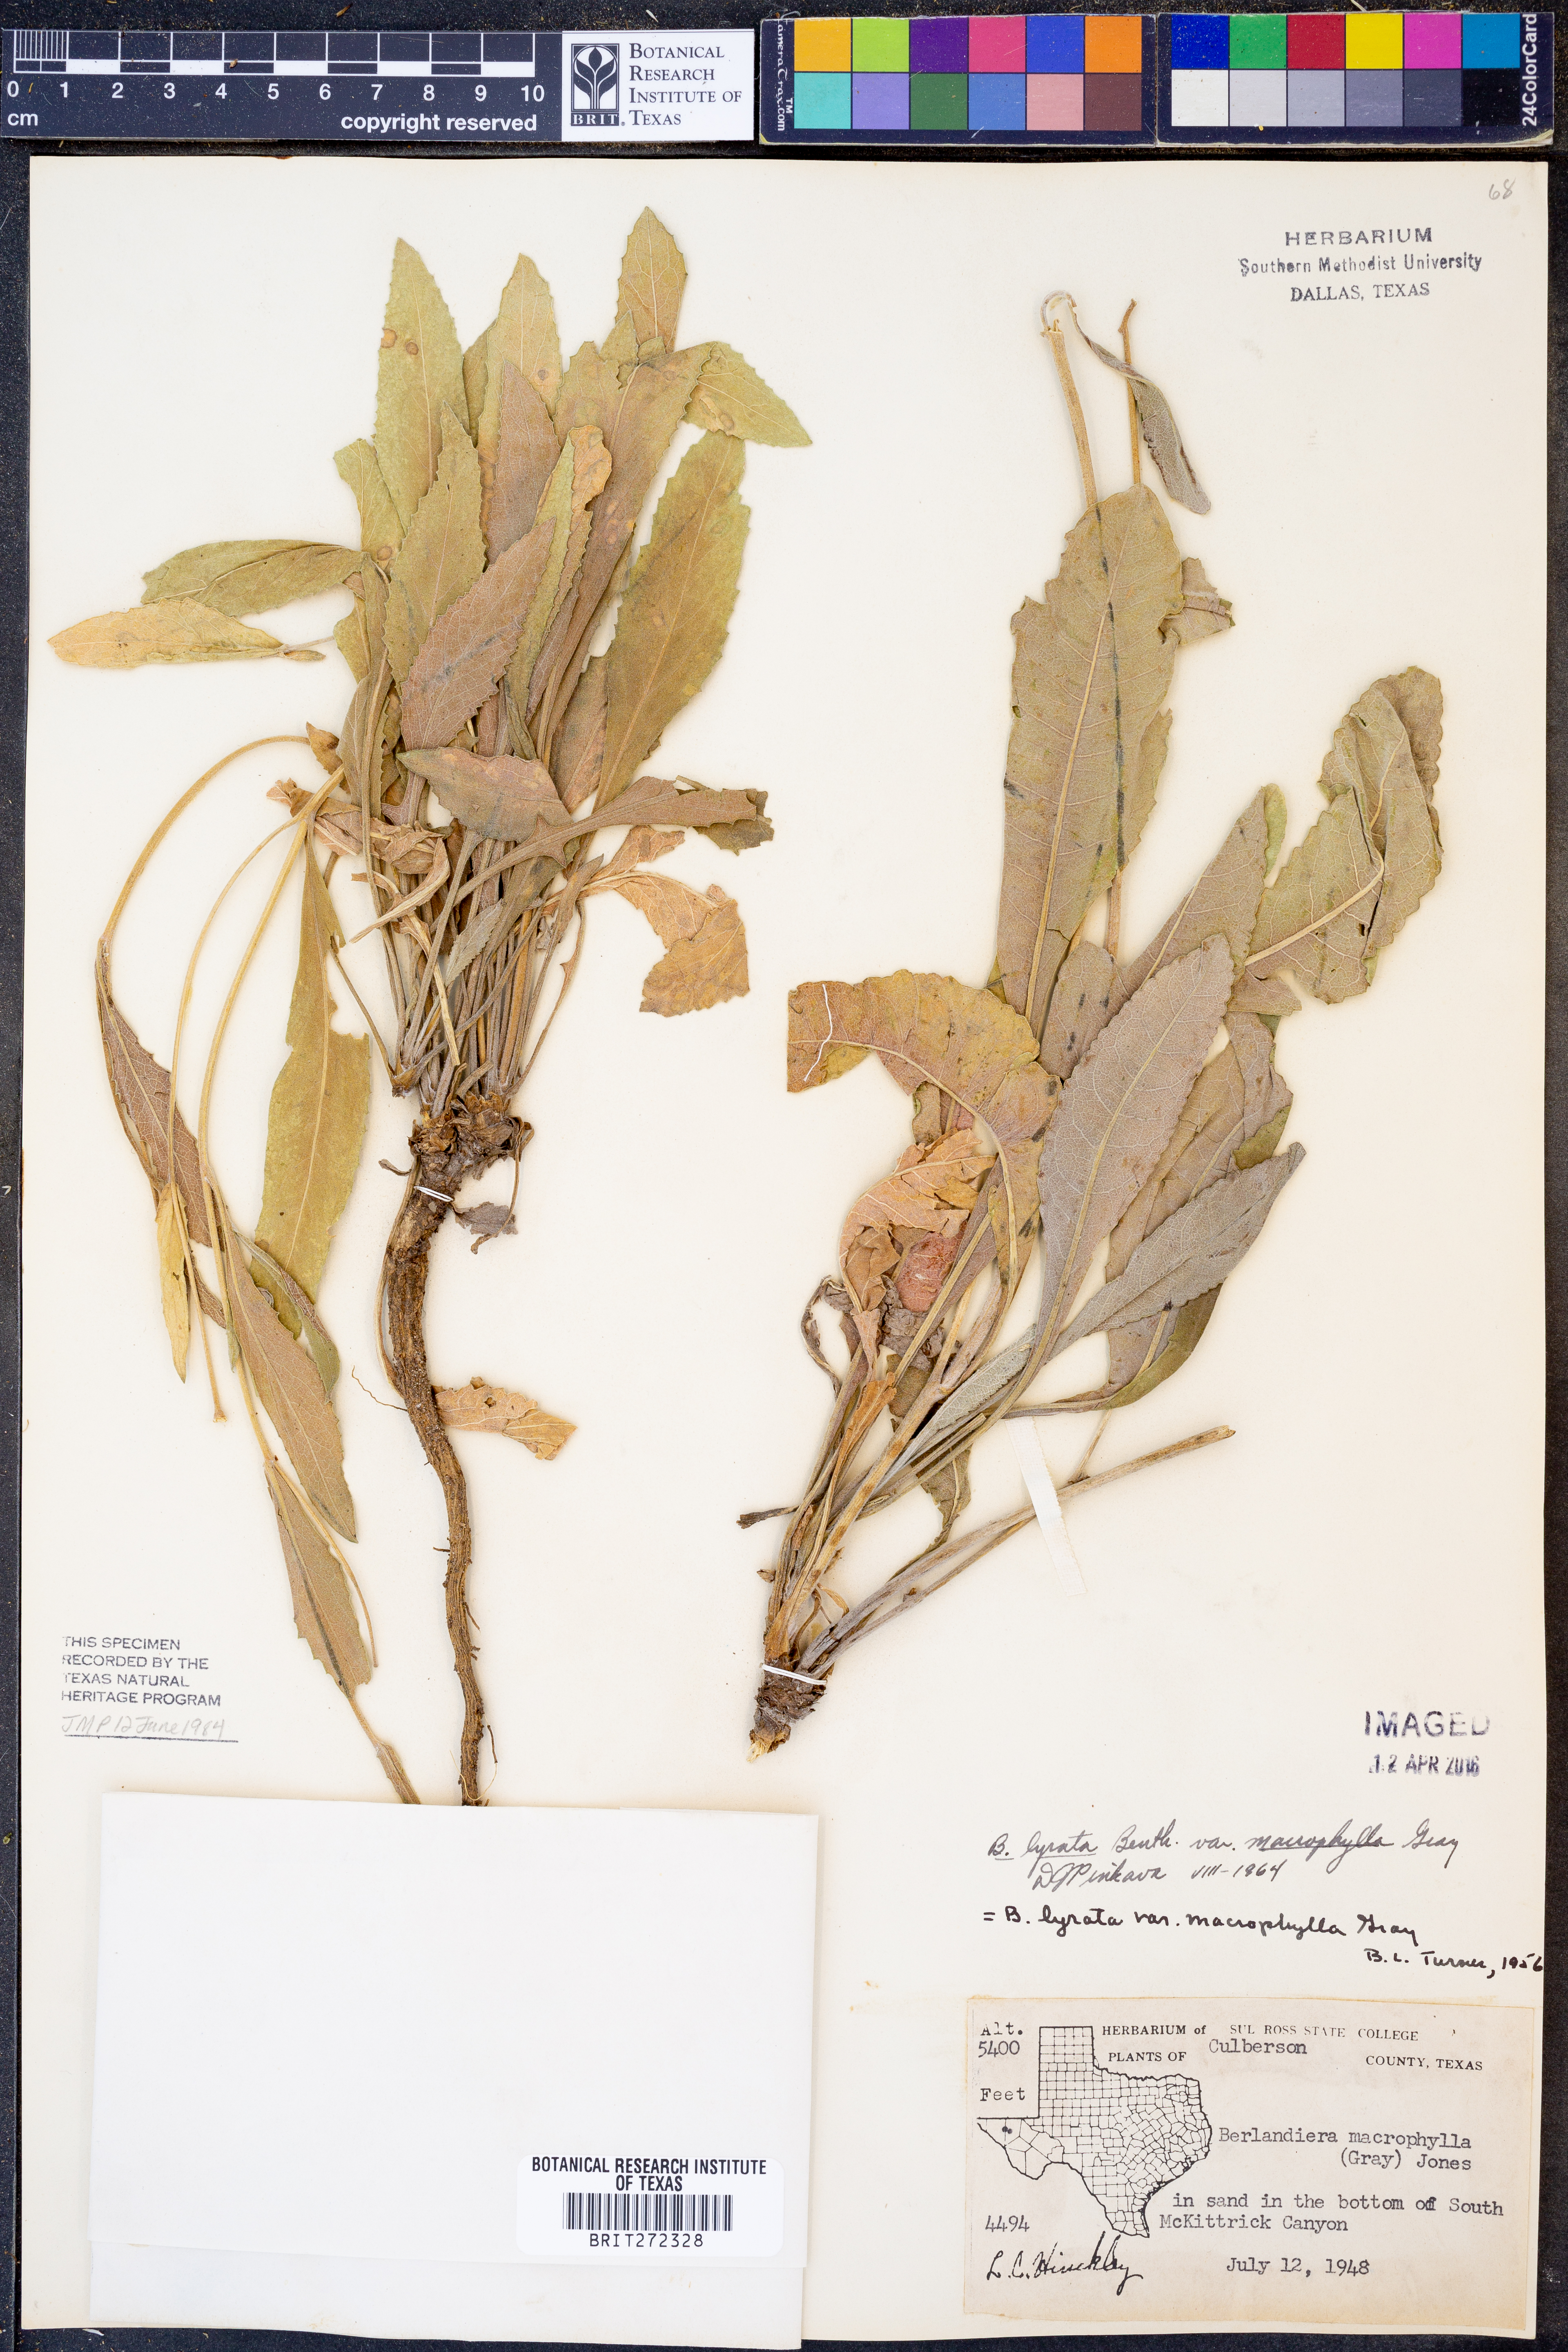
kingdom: Plantae
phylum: Tracheophyta
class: Magnoliopsida
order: Asterales
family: Asteraceae
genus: Berlandiera
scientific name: Berlandiera macrophylla
